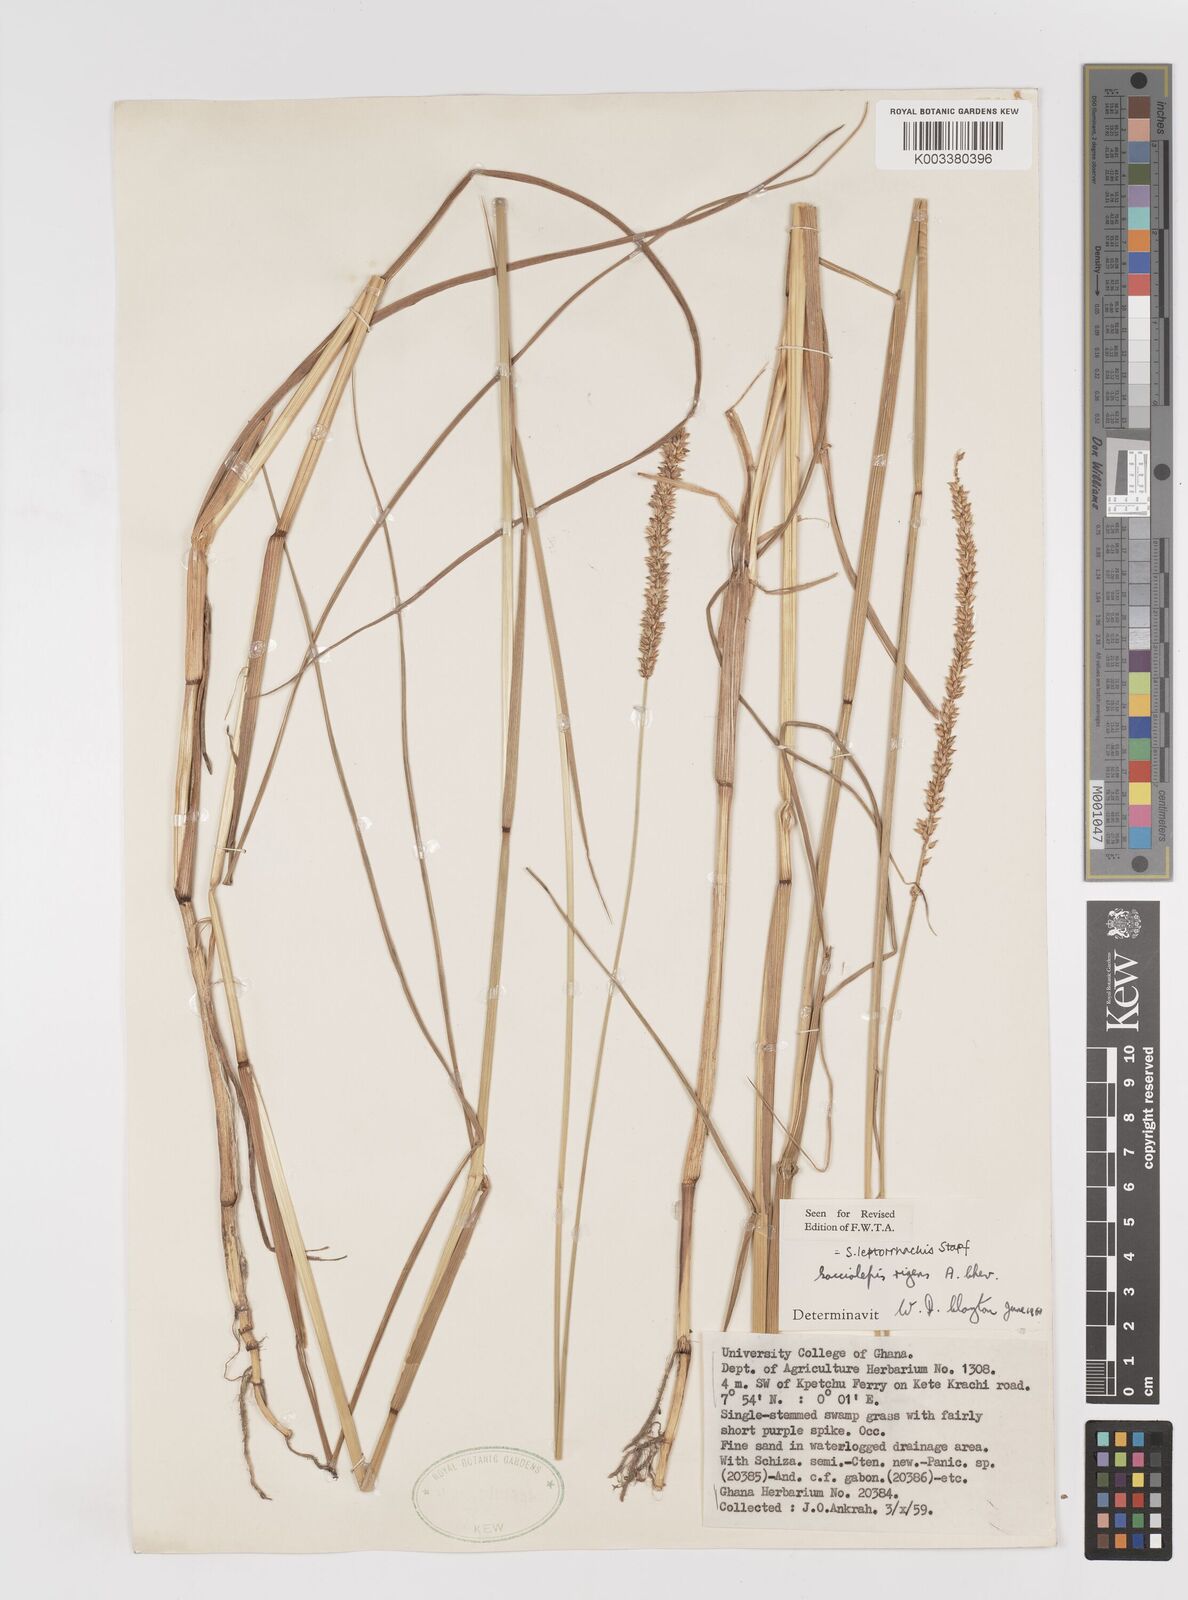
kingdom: Plantae
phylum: Tracheophyta
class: Liliopsida
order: Poales
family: Poaceae
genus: Sacciolepis
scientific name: Sacciolepis leptorrhachis
